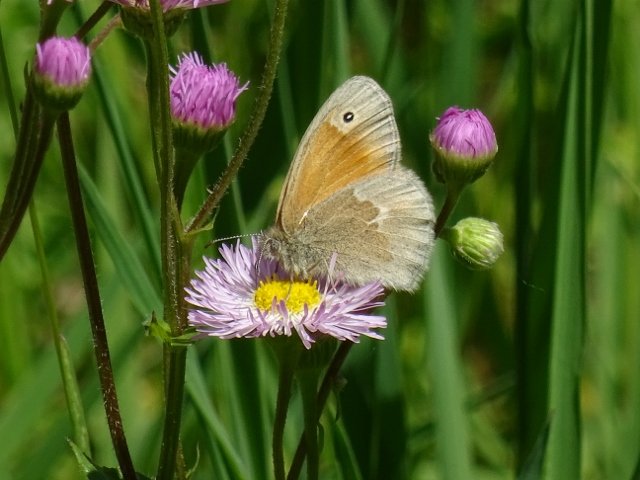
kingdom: Animalia
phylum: Arthropoda
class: Insecta
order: Lepidoptera
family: Nymphalidae
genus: Coenonympha
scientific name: Coenonympha tullia
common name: Large Heath
